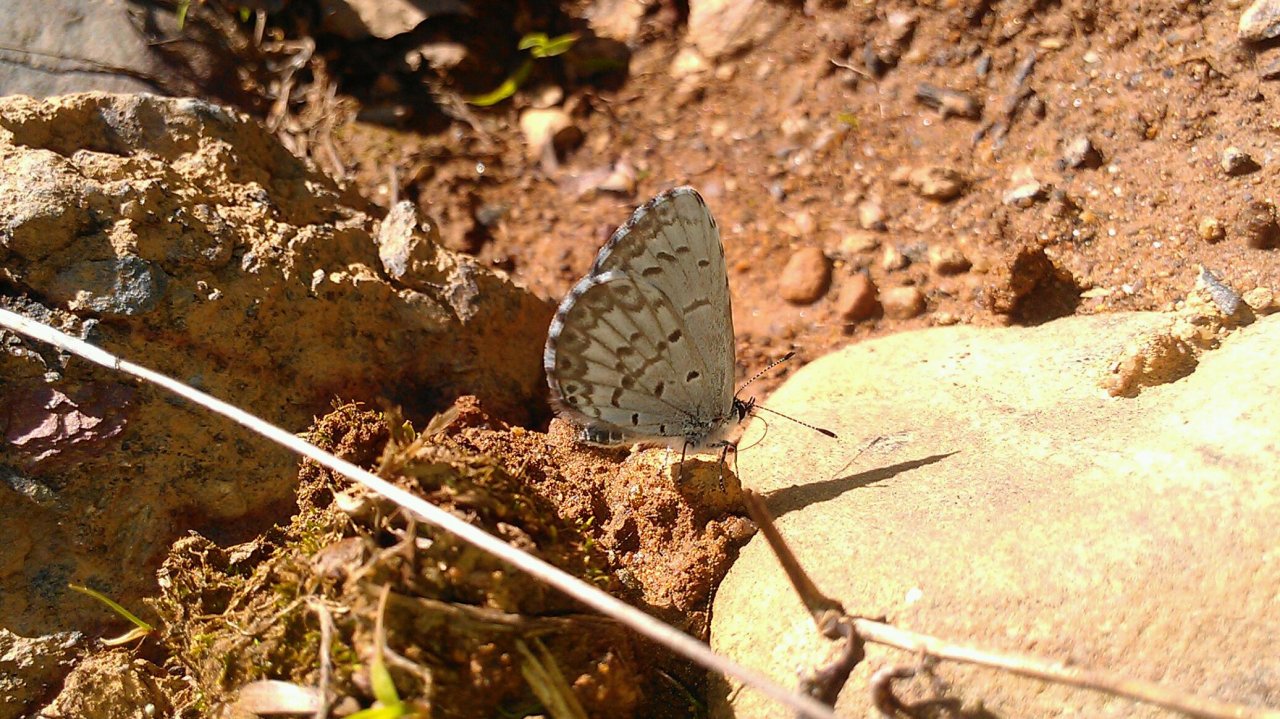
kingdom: Animalia
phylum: Arthropoda
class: Insecta
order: Lepidoptera
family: Lycaenidae
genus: Celastrina
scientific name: Celastrina lucia
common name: Northern Spring Azure
